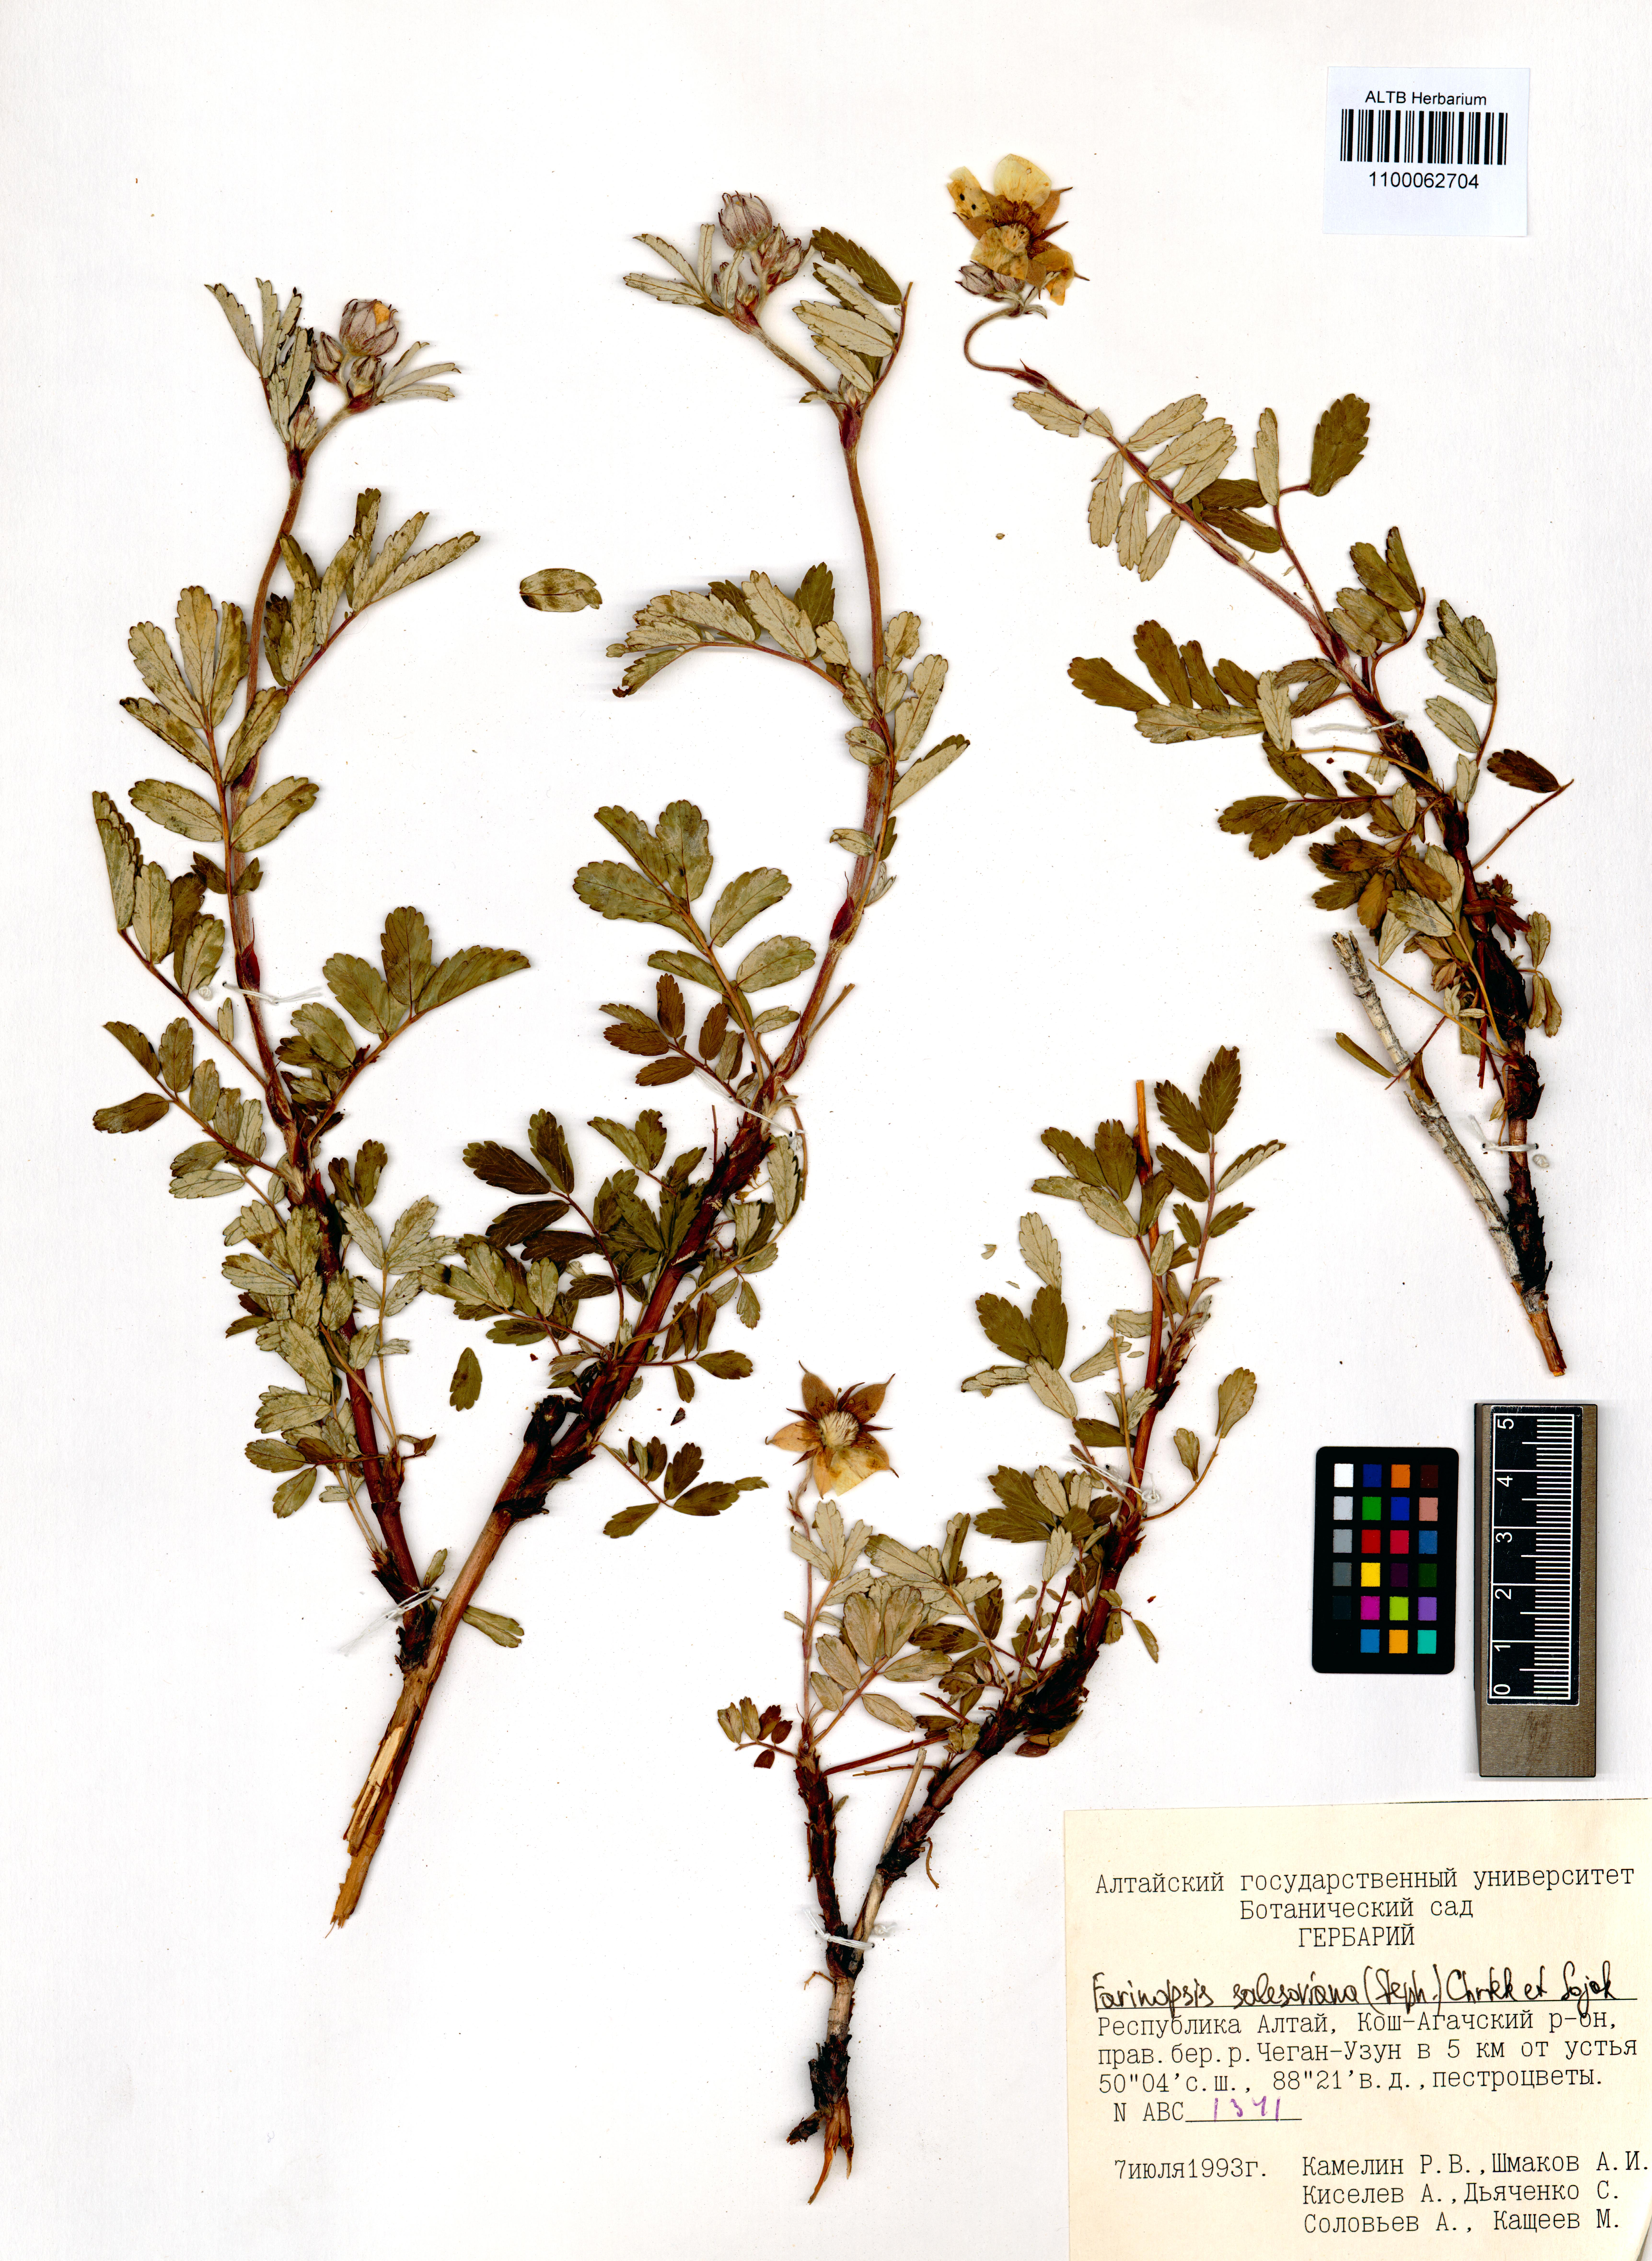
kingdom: Plantae
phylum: Tracheophyta
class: Magnoliopsida
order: Rosales
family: Rosaceae
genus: Farinopsis
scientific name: Farinopsis salesoviana
